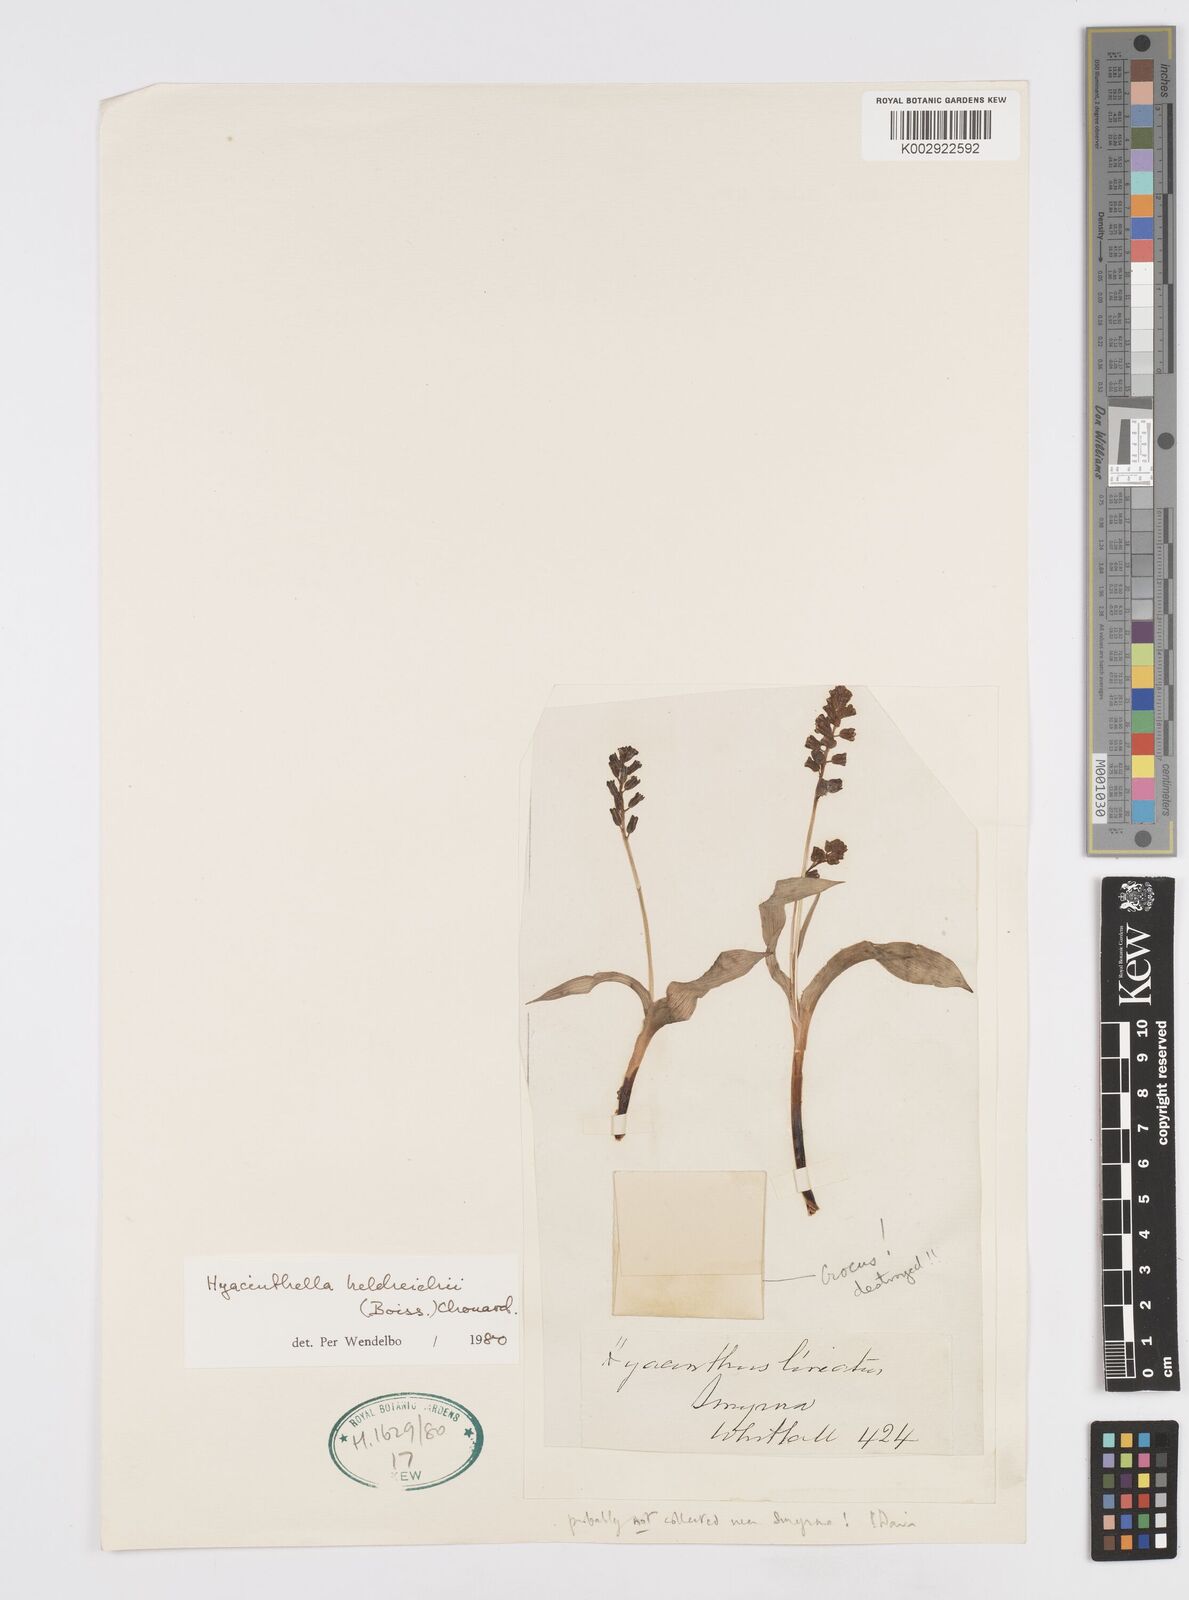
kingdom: Plantae
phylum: Tracheophyta
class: Liliopsida
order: Asparagales
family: Asparagaceae
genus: Hyacinthella
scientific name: Hyacinthella heldreichii
